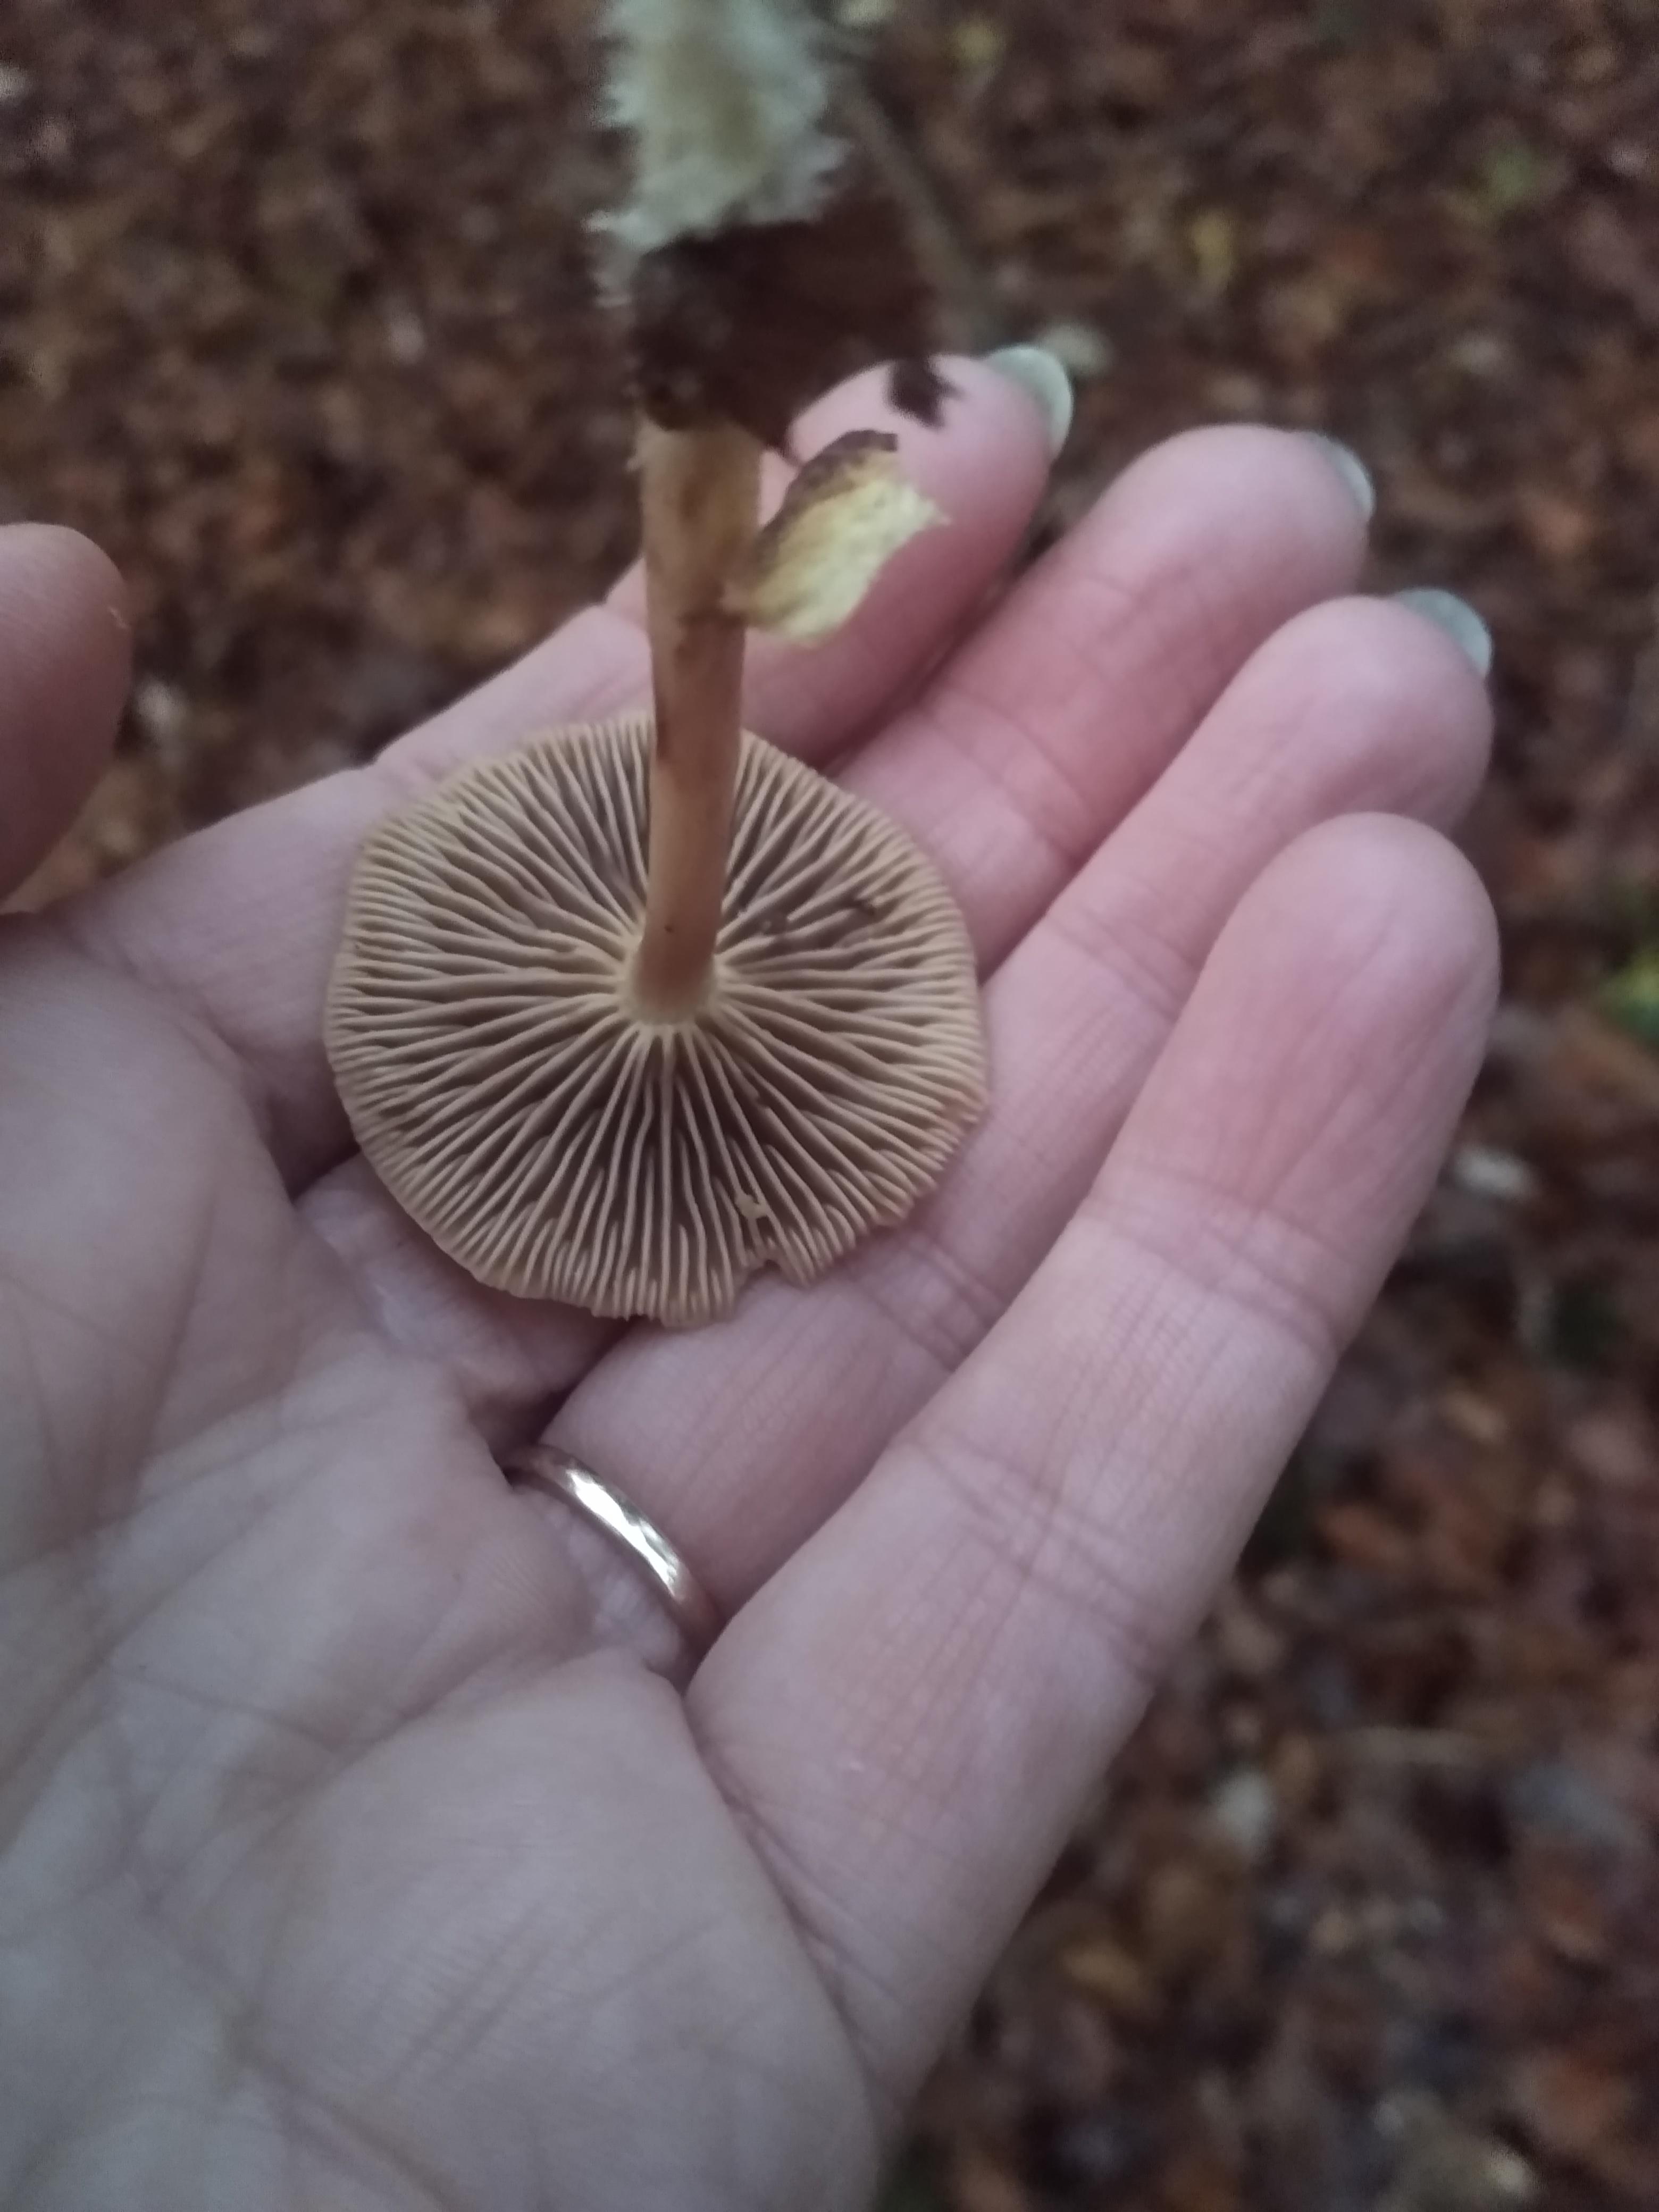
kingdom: Fungi
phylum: Basidiomycota
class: Agaricomycetes
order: Agaricales
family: Omphalotaceae
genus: Collybiopsis
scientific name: Collybiopsis peronata
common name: bestøvlet fladhat
